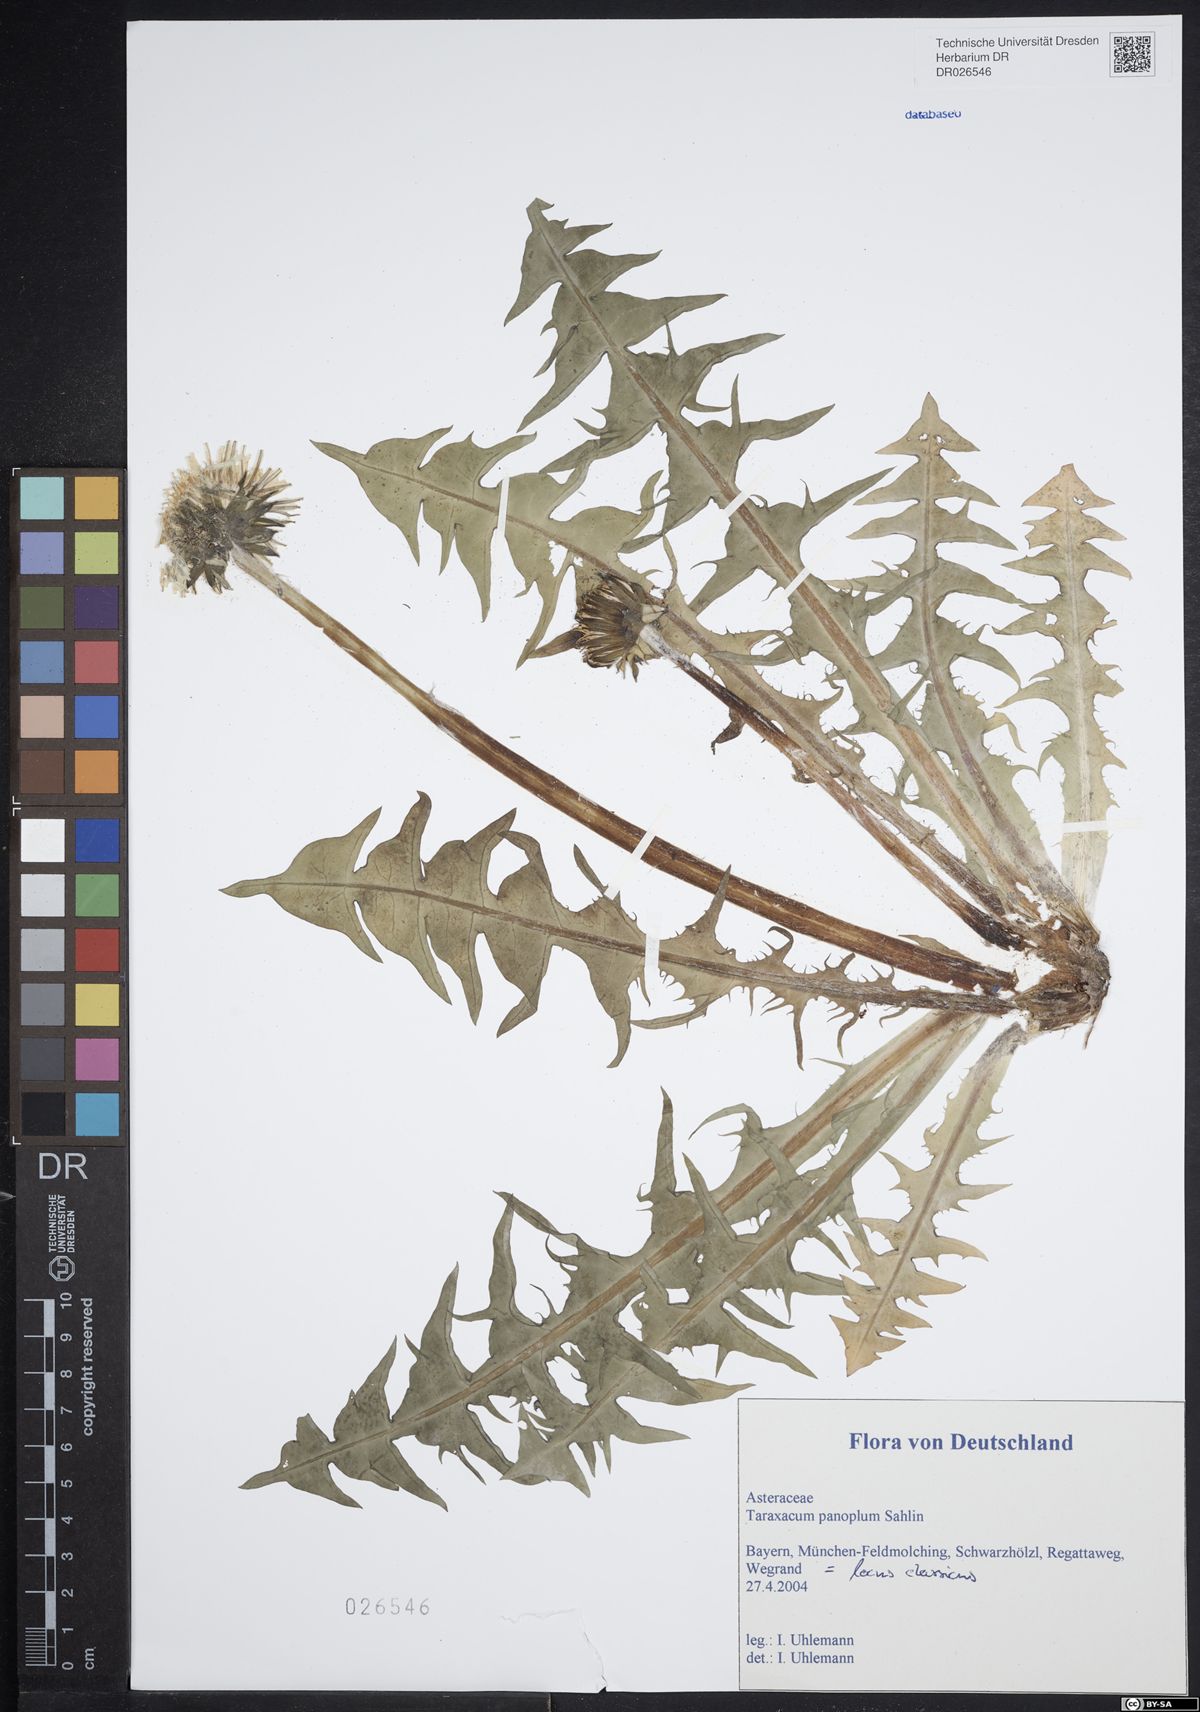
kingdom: Plantae
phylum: Tracheophyta
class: Magnoliopsida
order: Asterales
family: Asteraceae
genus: Taraxacum
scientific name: Taraxacum panoplum
